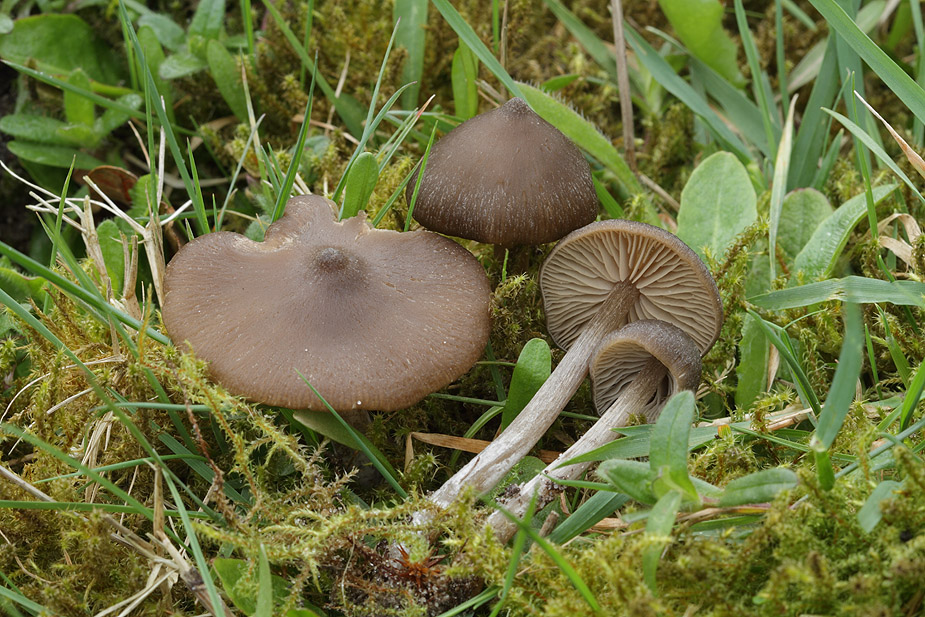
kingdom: Fungi
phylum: Basidiomycota
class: Agaricomycetes
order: Agaricales
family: Entolomataceae
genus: Entoloma
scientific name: Entoloma vernum
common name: vår-rødblad
